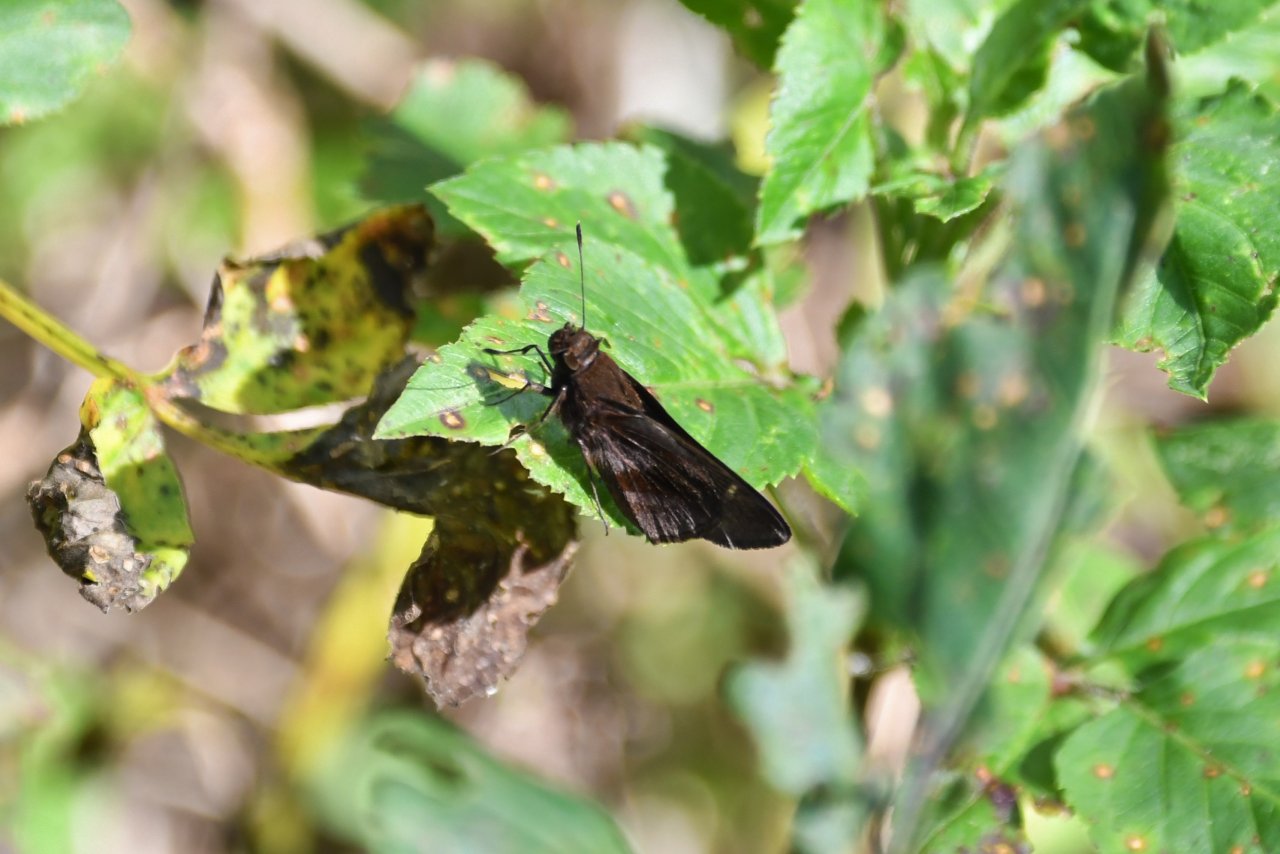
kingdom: Animalia
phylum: Arthropoda
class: Insecta
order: Lepidoptera
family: Hesperiidae
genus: Lerema
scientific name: Lerema accius
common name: Clouded Skipper
